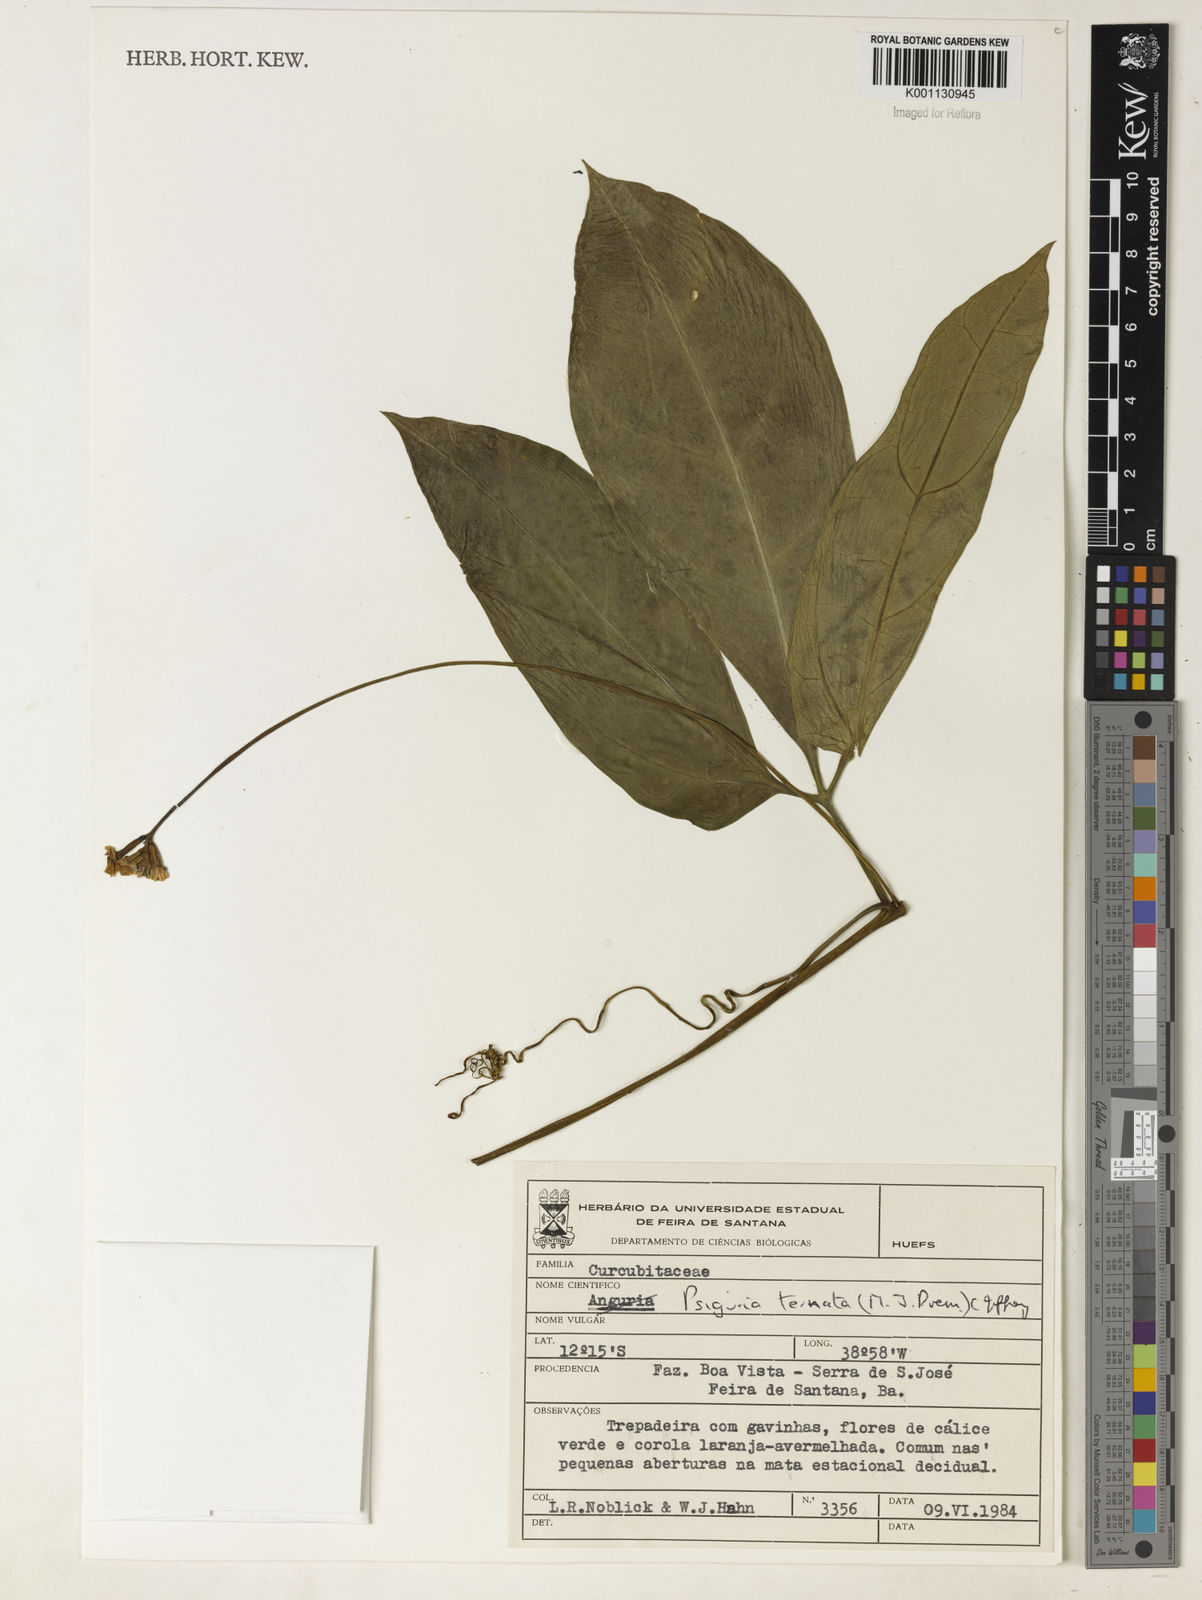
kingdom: Plantae
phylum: Tracheophyta
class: Magnoliopsida
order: Cucurbitales
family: Cucurbitaceae
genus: Psiguria
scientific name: Psiguria ternata
